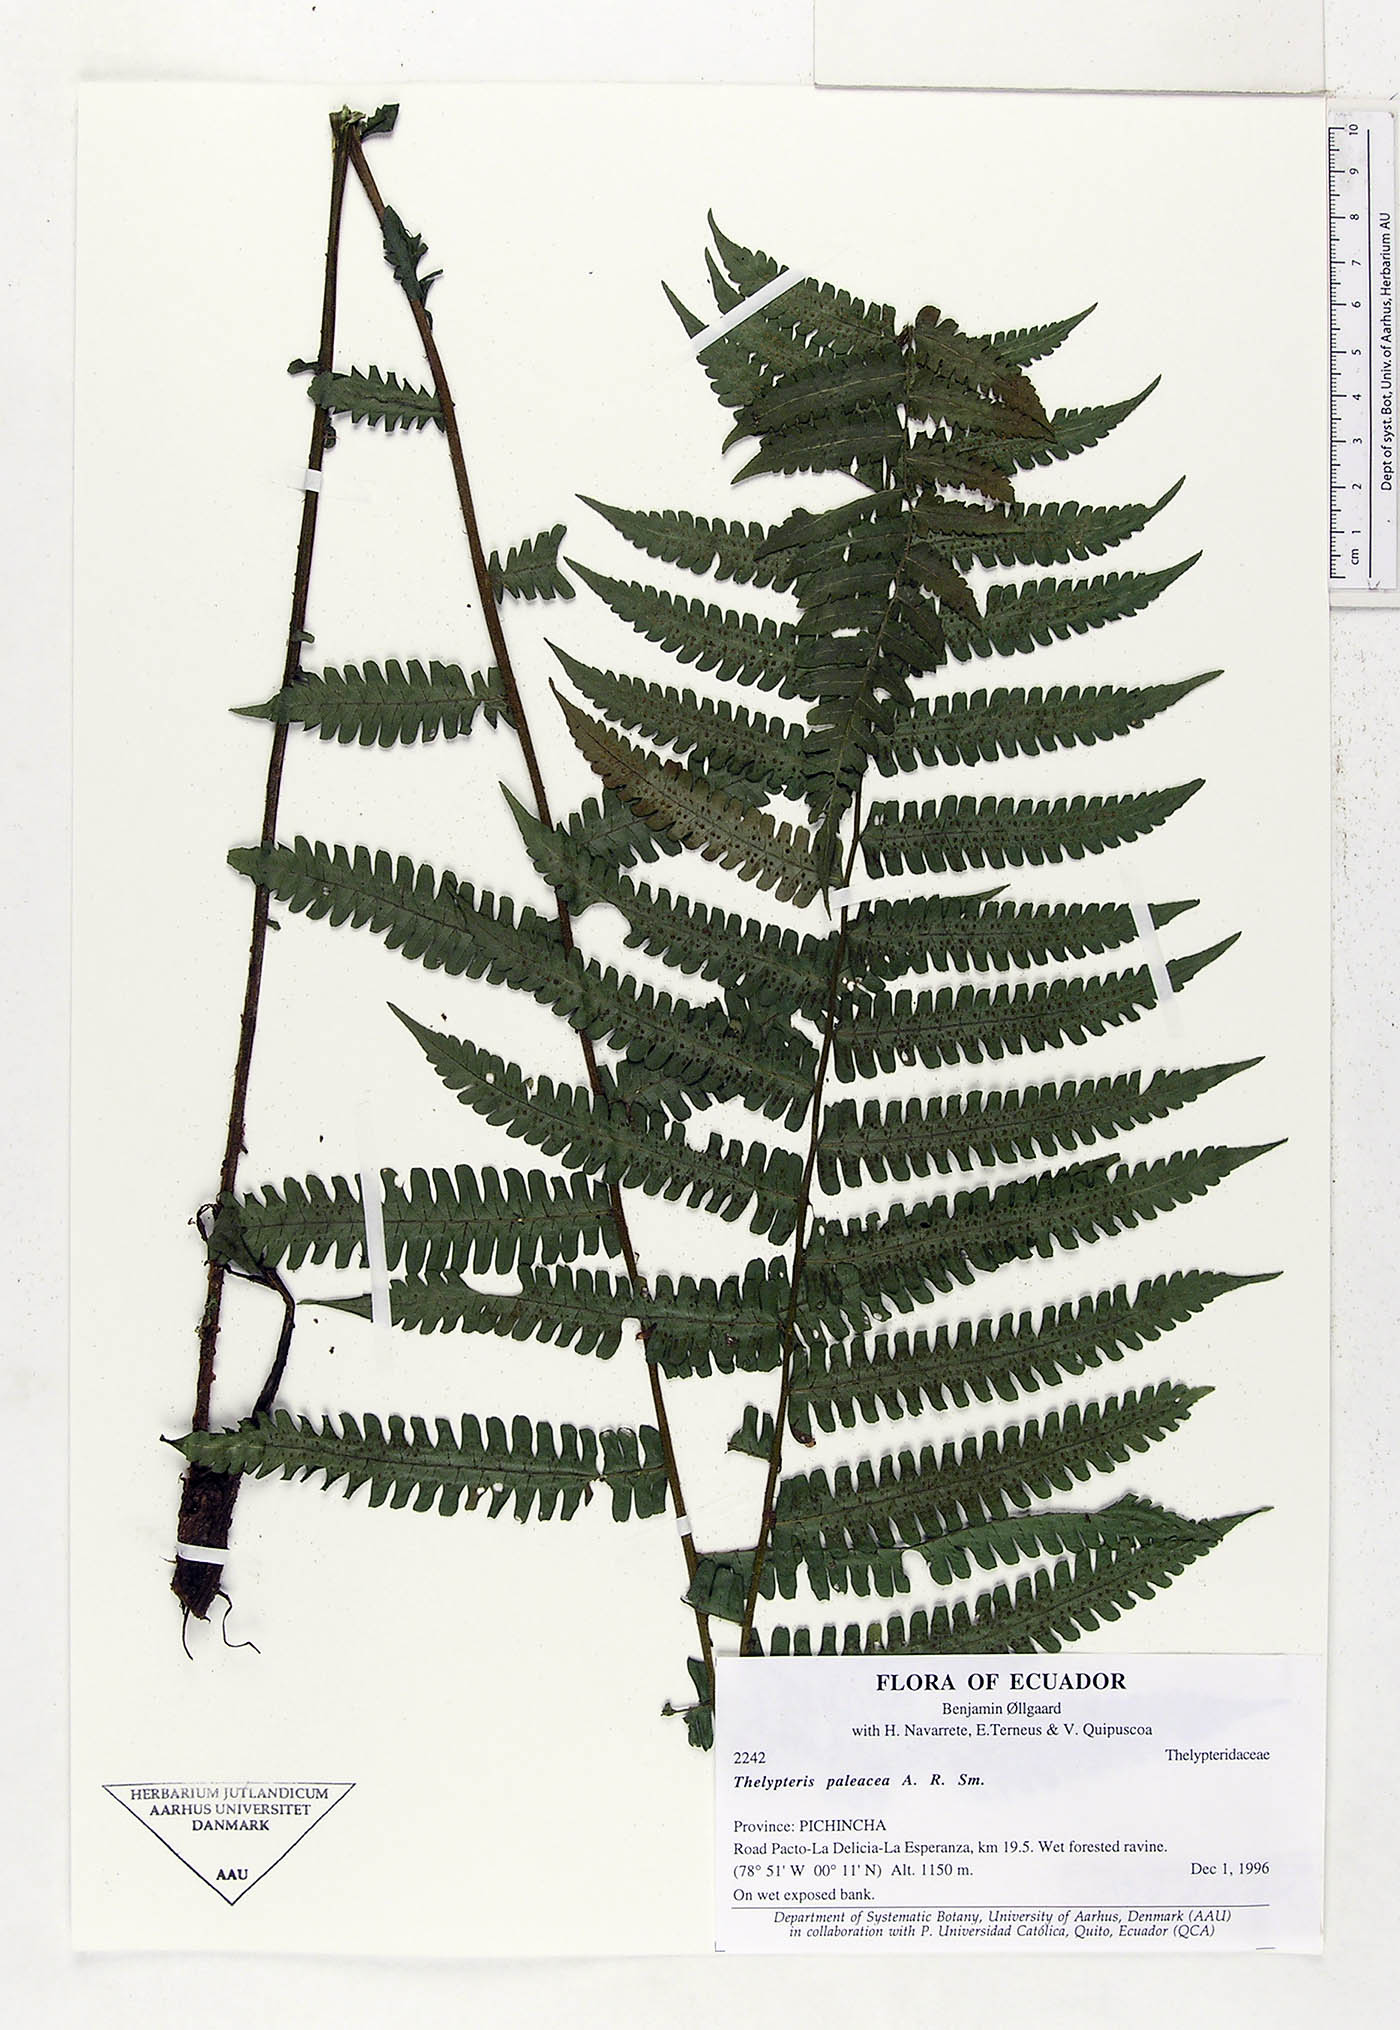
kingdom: Plantae
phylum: Tracheophyta
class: Polypodiopsida
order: Polypodiales
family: Thelypteridaceae
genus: Amauropelta
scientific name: Amauropelta paleacea
